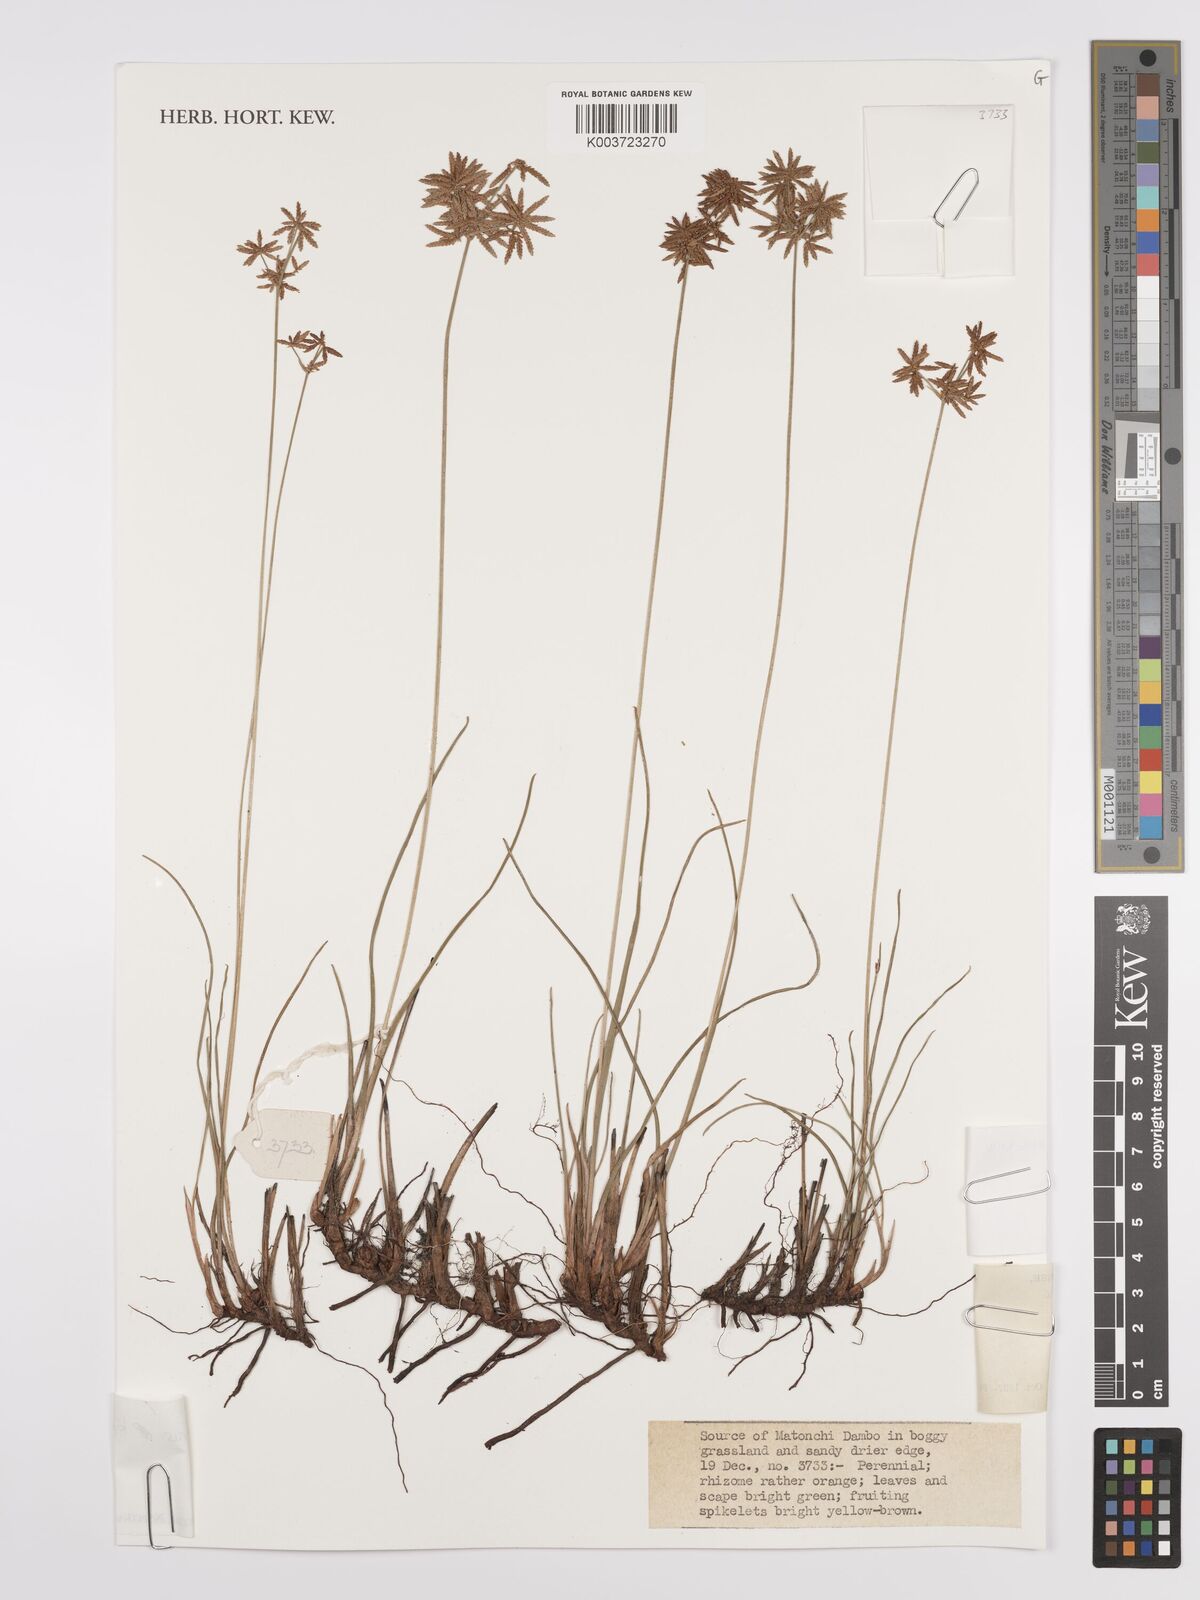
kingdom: Plantae
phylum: Tracheophyta
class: Liliopsida
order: Poales
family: Cyperaceae
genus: Cyperus
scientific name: Cyperus kipasensis
